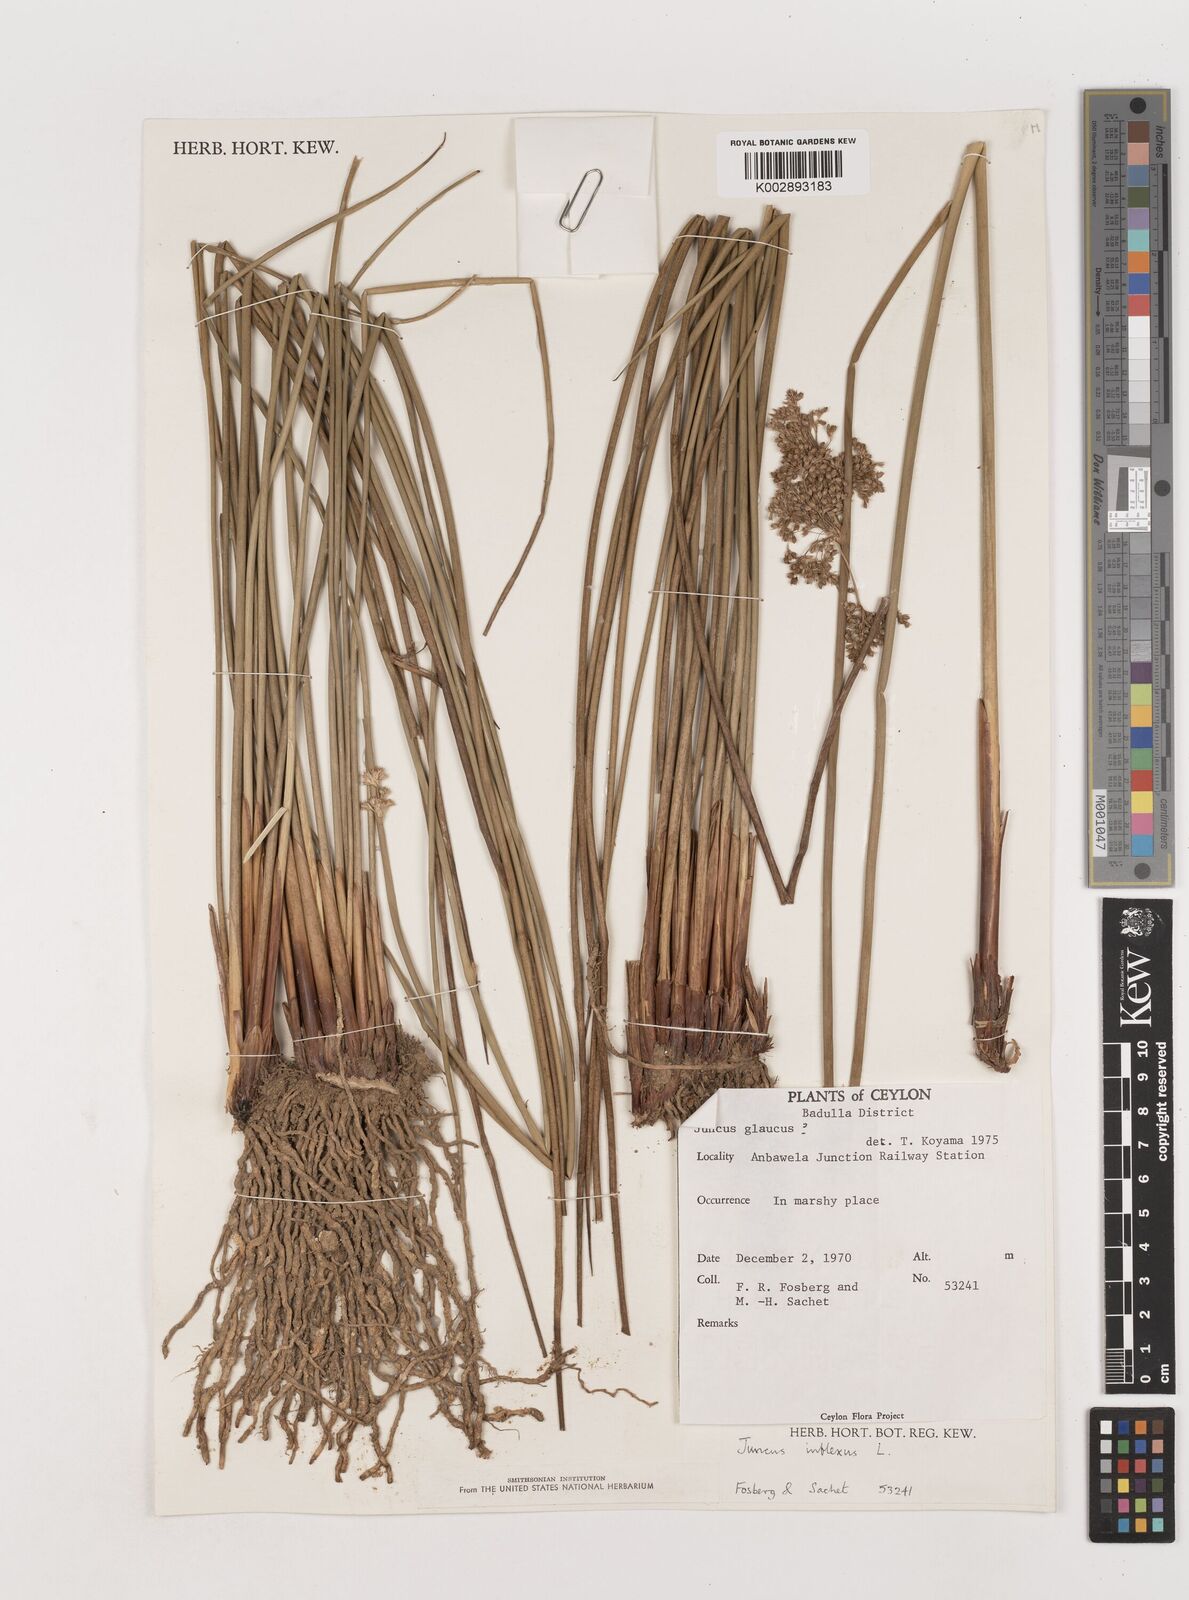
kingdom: Plantae
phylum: Tracheophyta
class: Liliopsida
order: Poales
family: Juncaceae
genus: Juncus
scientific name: Juncus inflexus
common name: Hard rush
